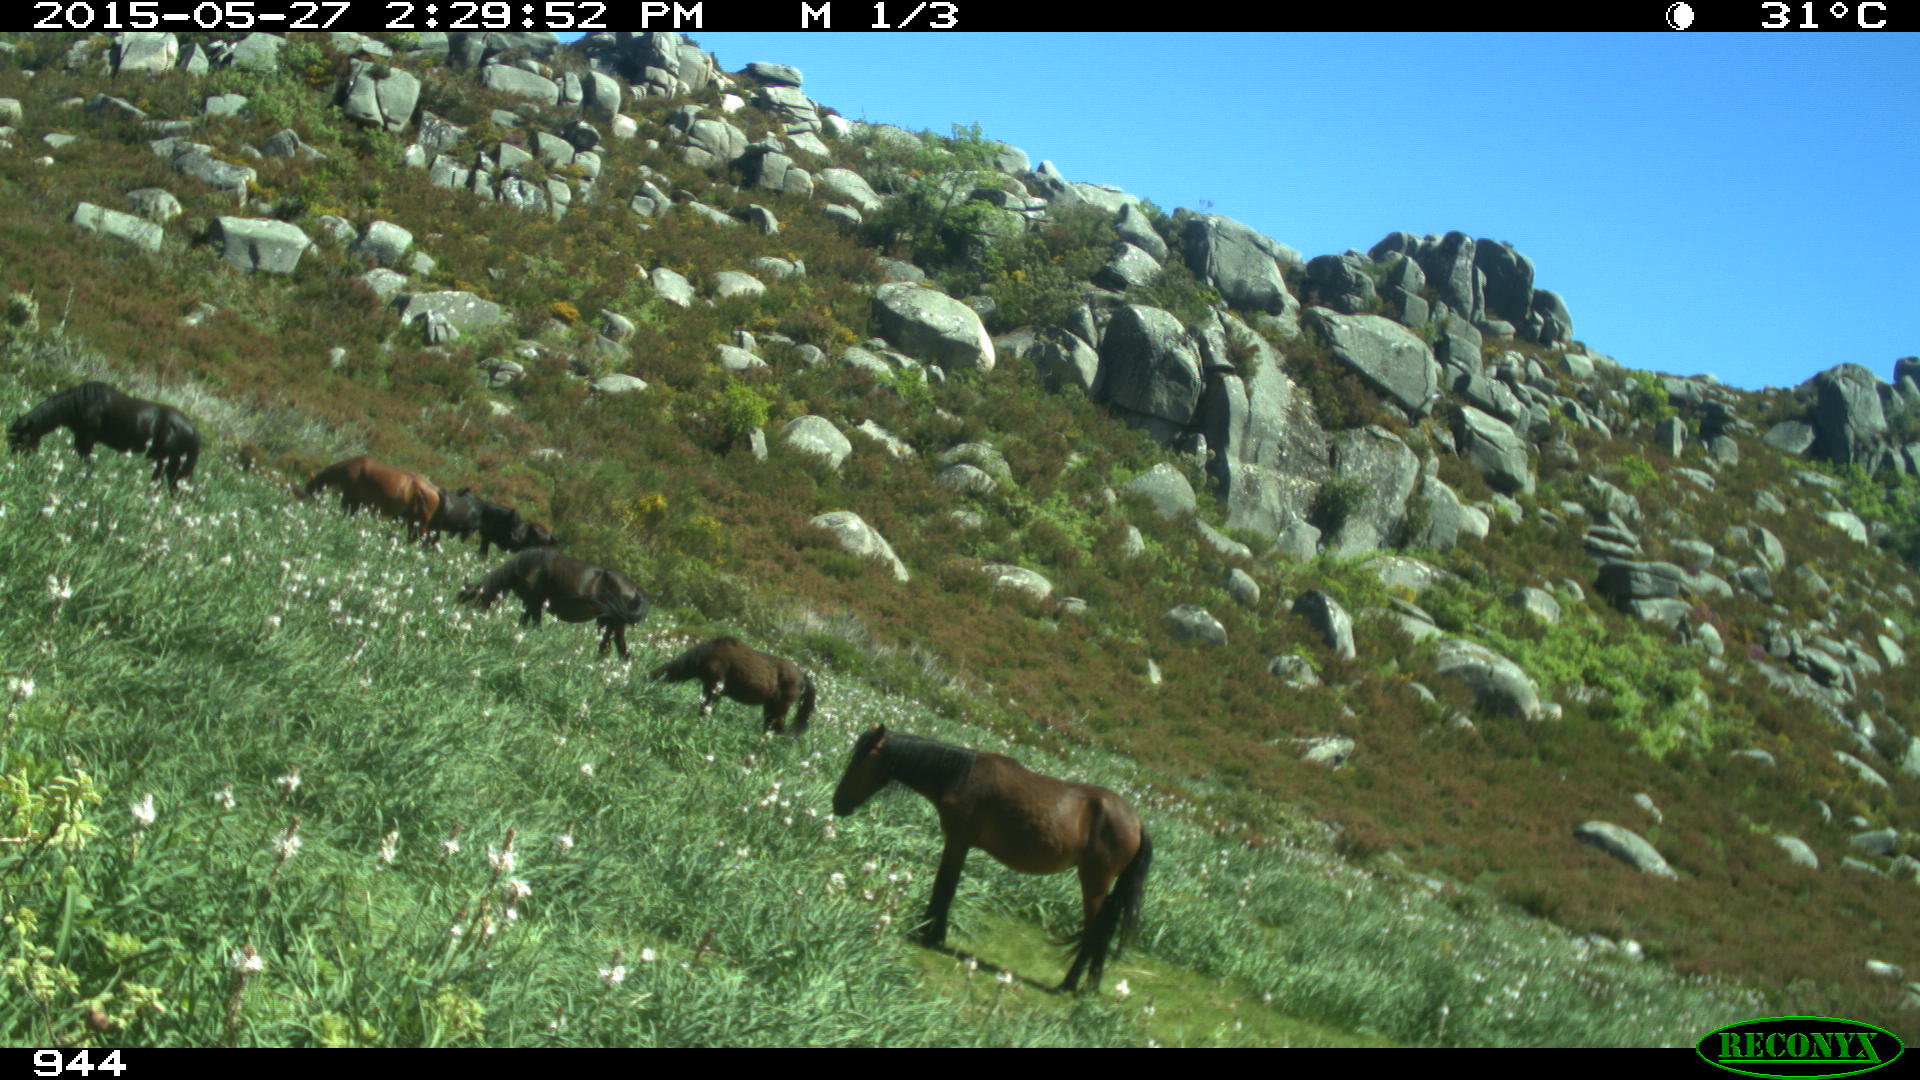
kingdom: Animalia
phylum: Chordata
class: Mammalia
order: Perissodactyla
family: Equidae
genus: Equus
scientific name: Equus caballus
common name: Horse
